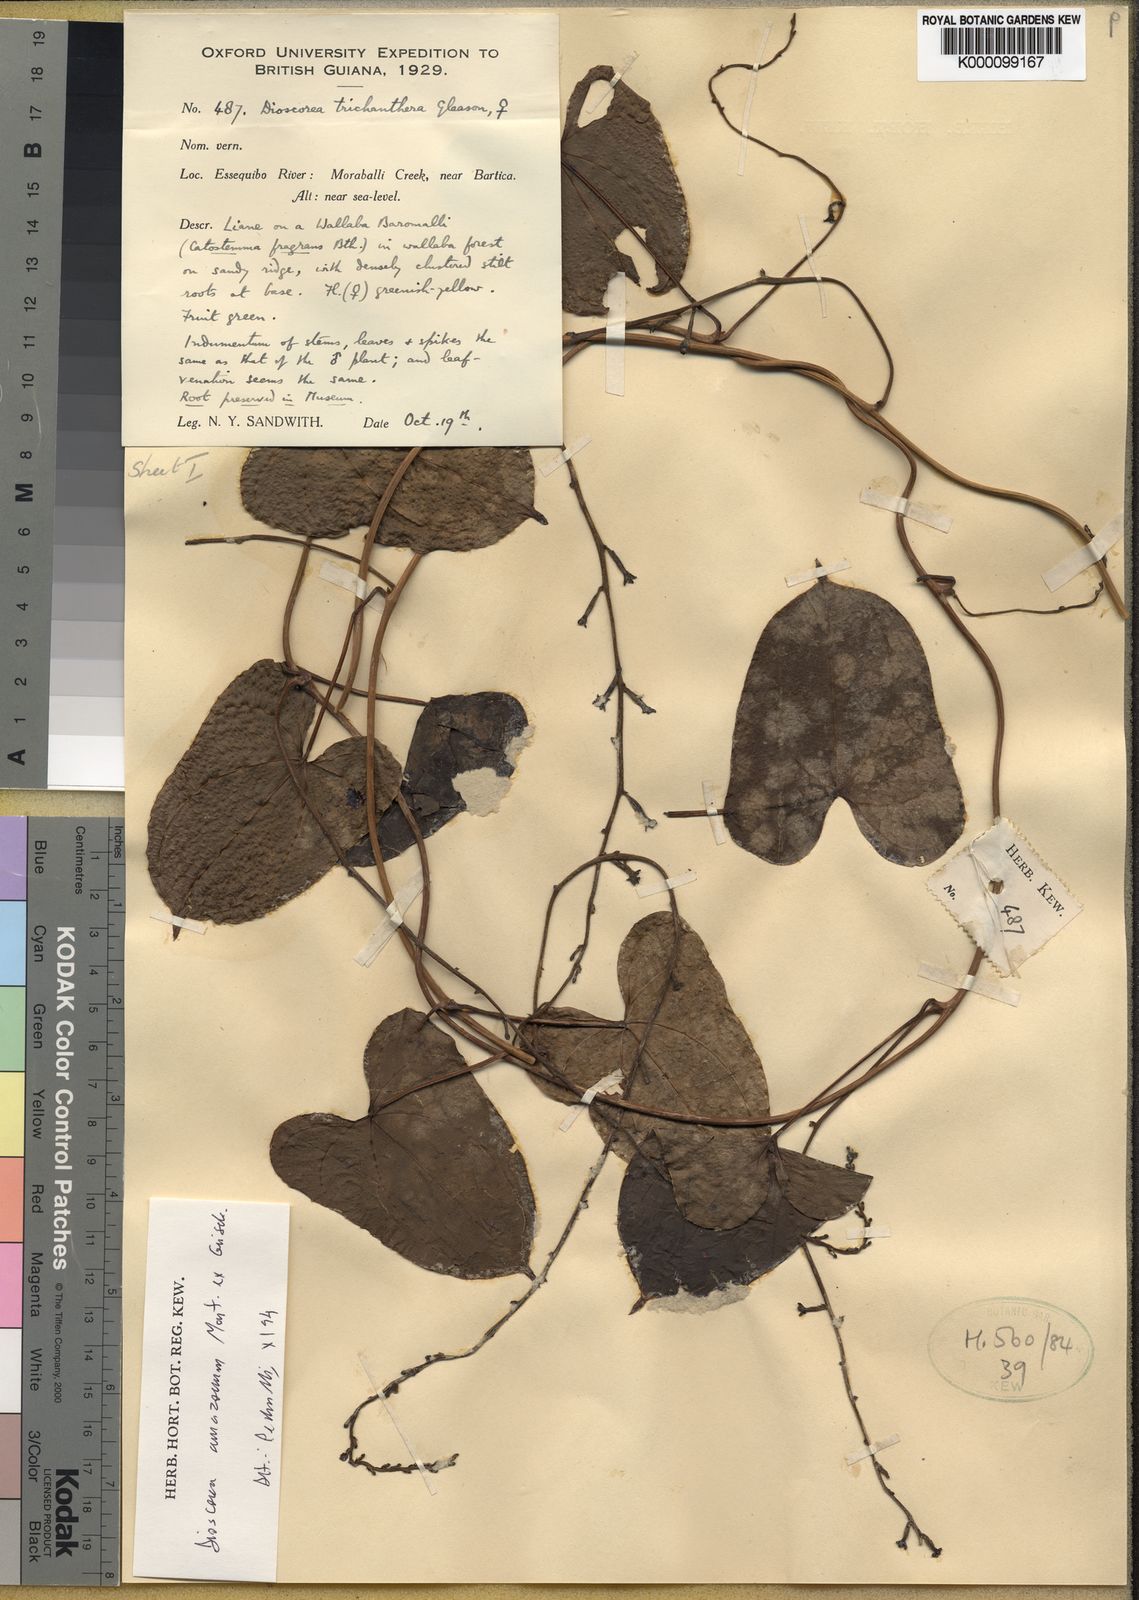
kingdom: Plantae
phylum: Tracheophyta
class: Liliopsida
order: Dioscoreales
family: Dioscoreaceae
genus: Dioscorea
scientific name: Dioscorea trichanthera
